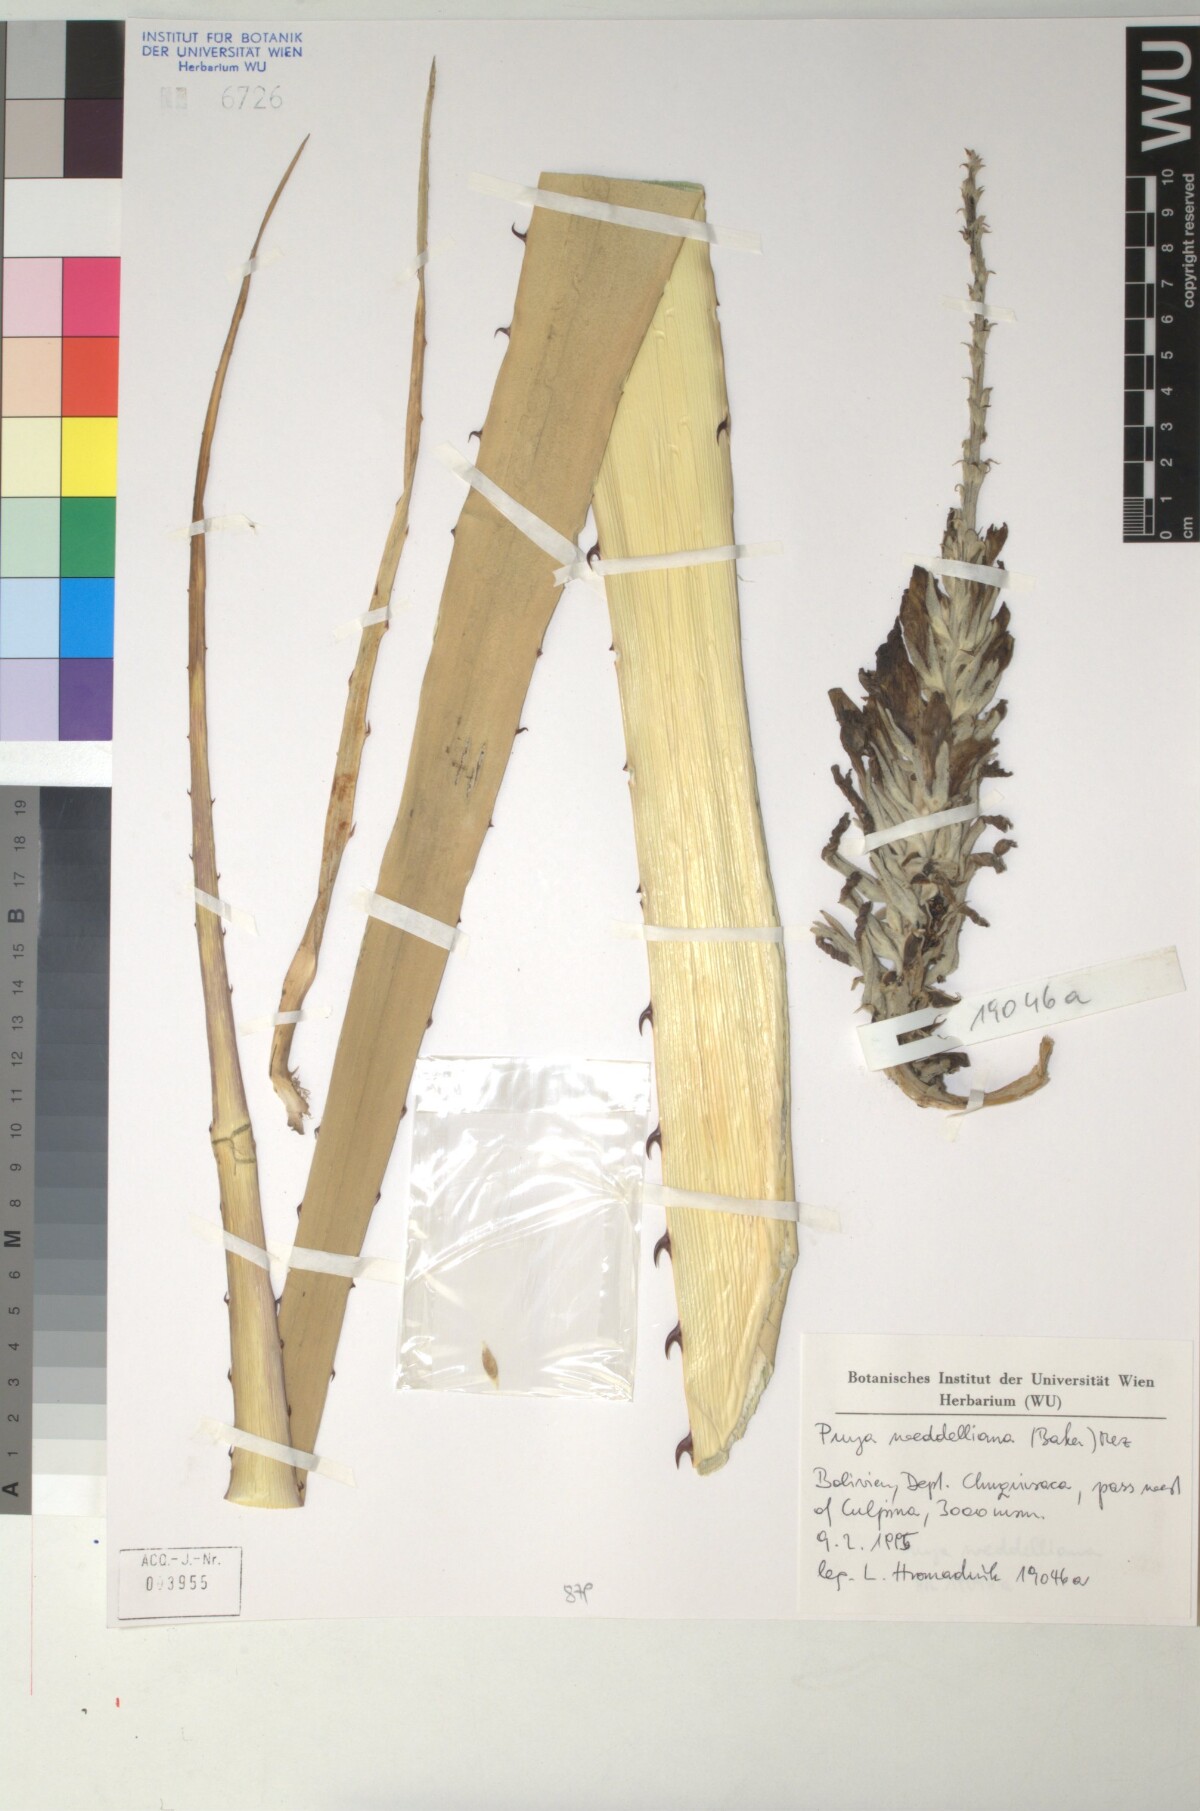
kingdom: Plantae
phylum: Tracheophyta
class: Liliopsida
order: Poales
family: Bromeliaceae
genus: Puya
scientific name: Puya weddelliana
